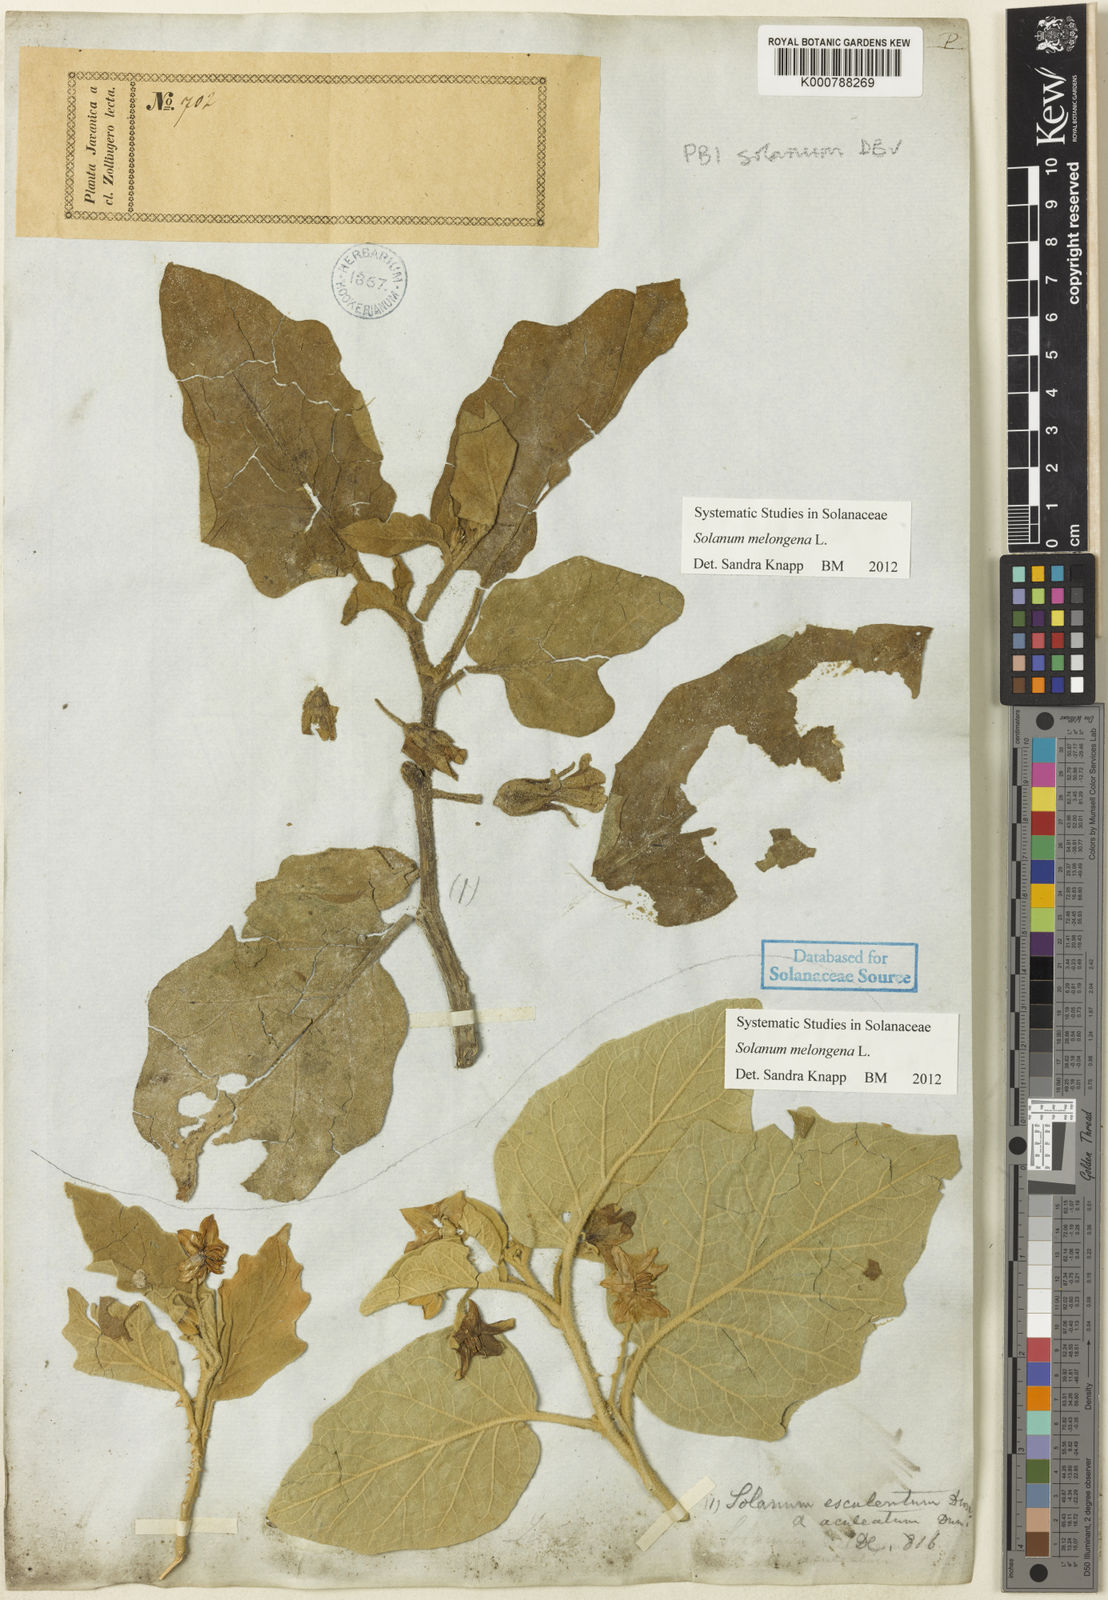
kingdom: Plantae
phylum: Tracheophyta
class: Magnoliopsida
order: Solanales
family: Solanaceae
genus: Solanum
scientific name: Solanum melongena
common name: Eggplant
